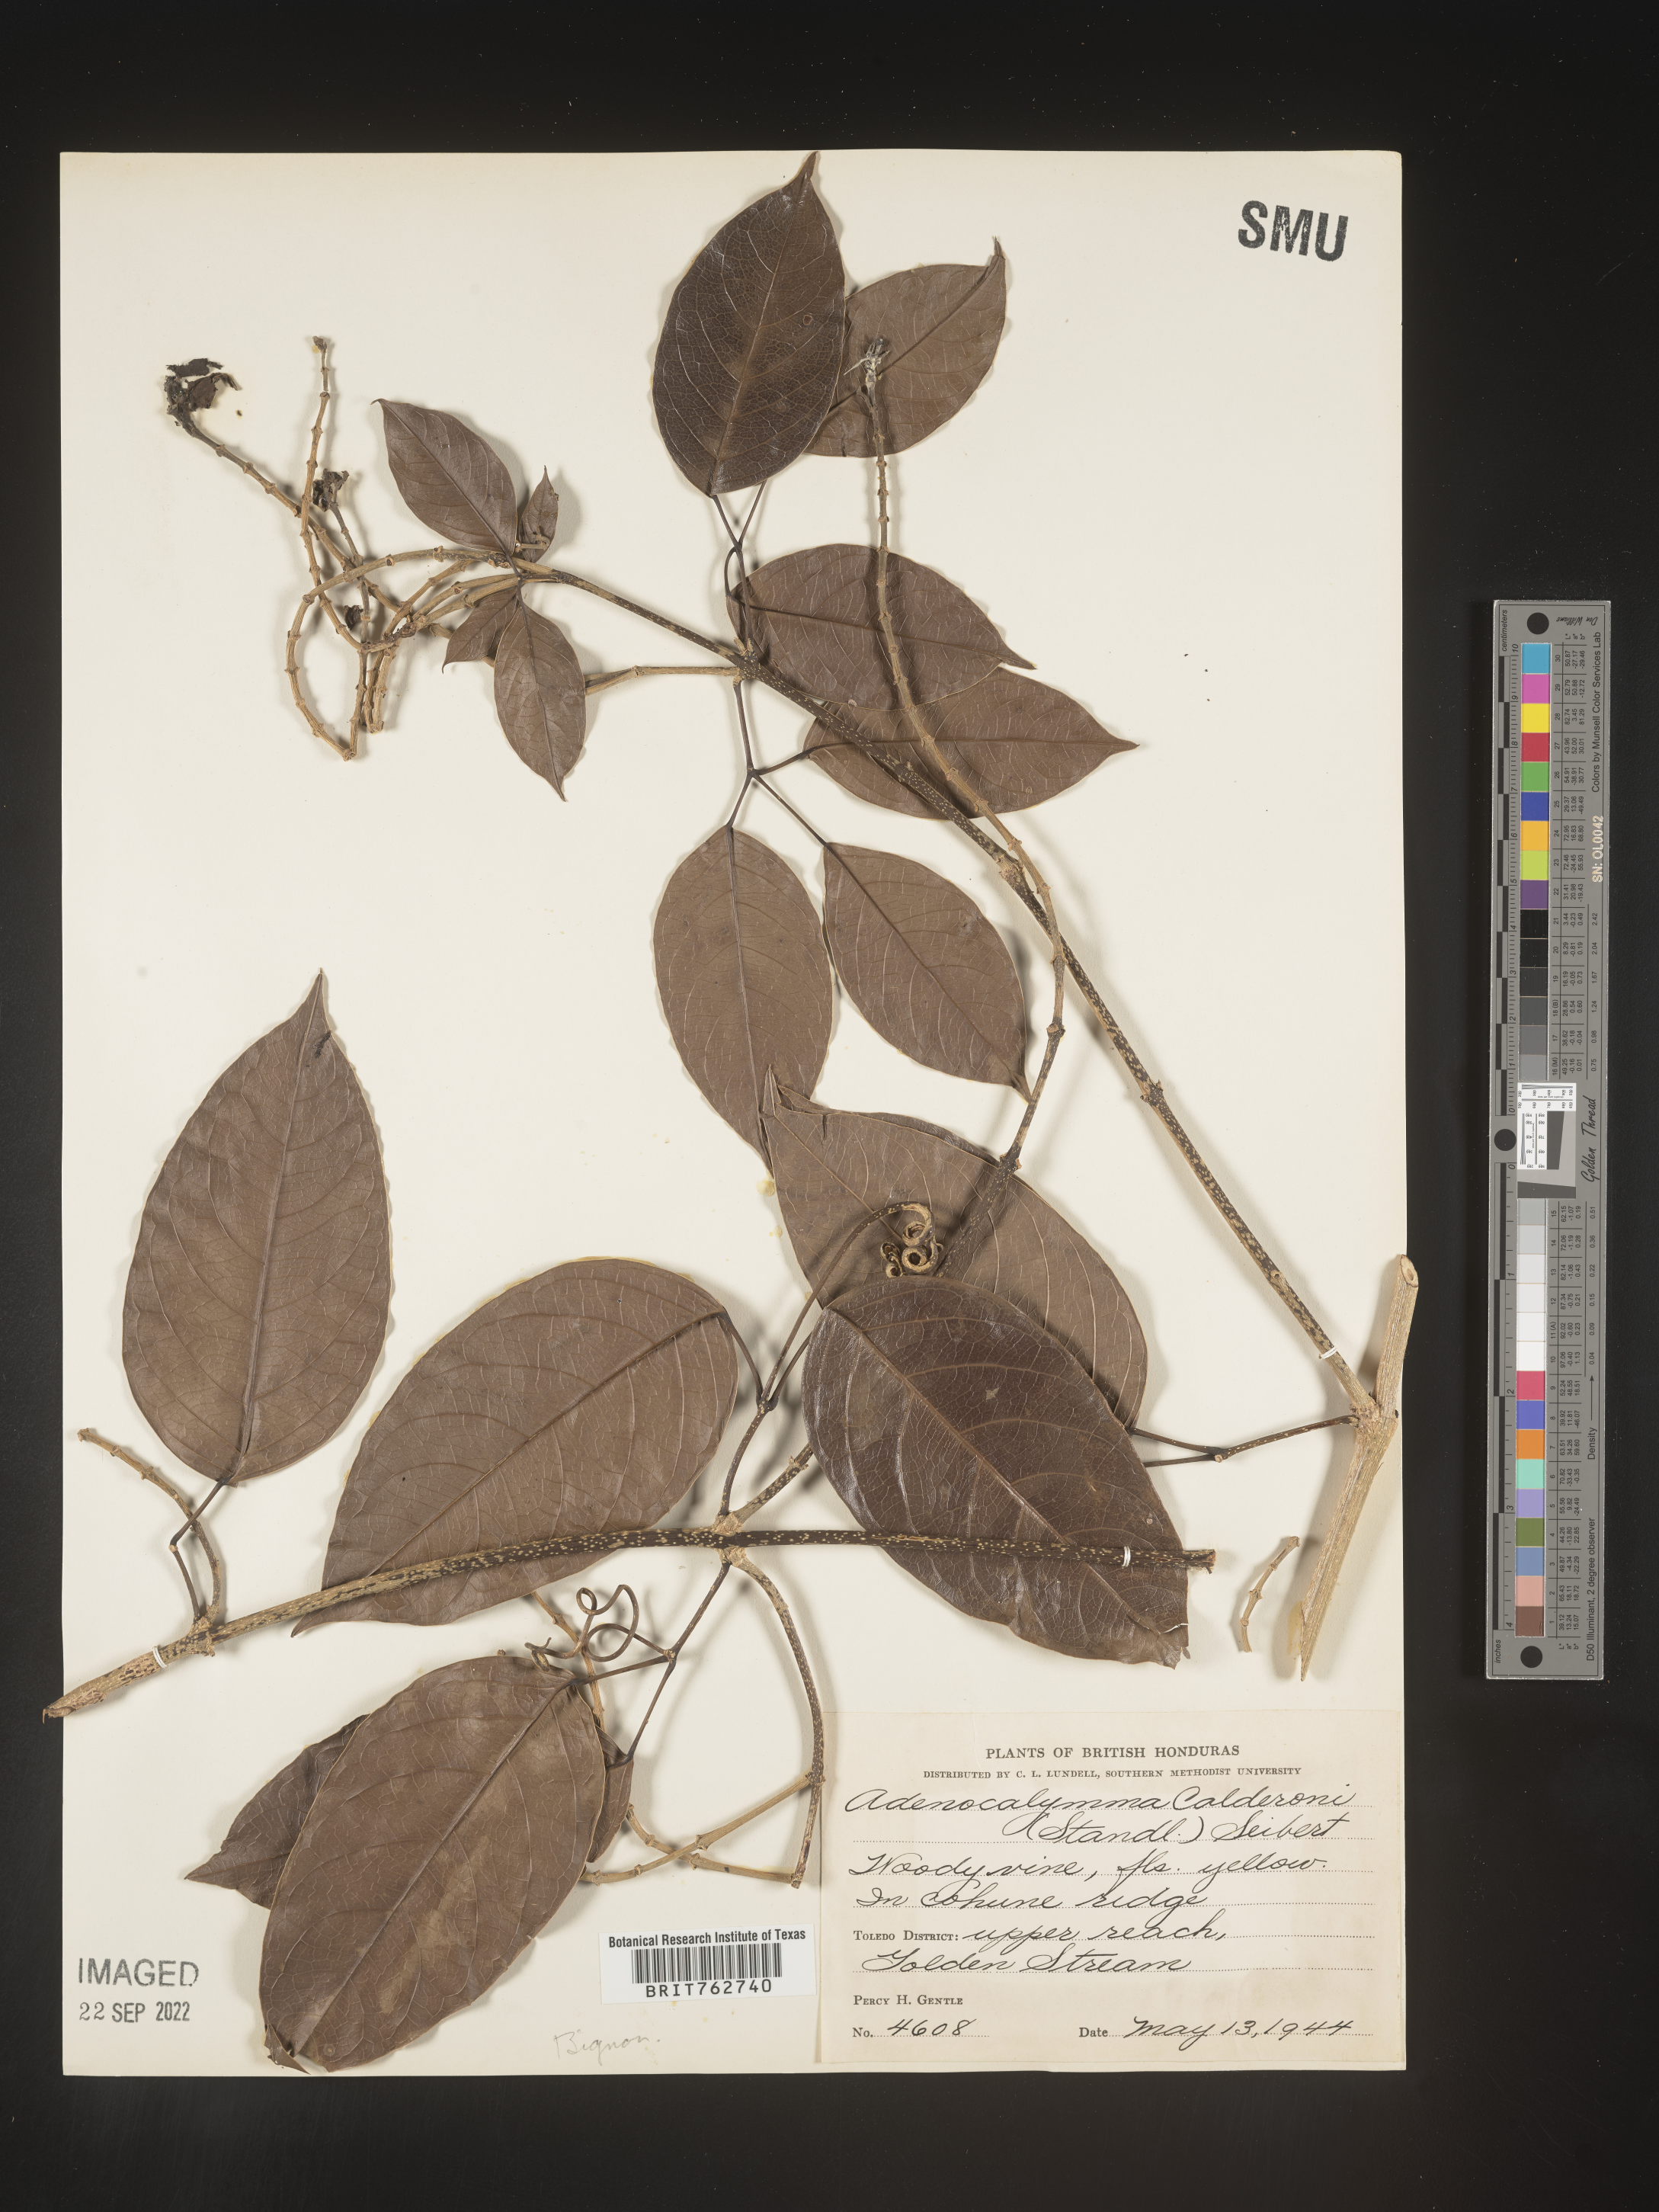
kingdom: Plantae
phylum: Tracheophyta
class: Magnoliopsida
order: Lamiales
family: Bignoniaceae
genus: Adenocalymma
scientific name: Adenocalymma
